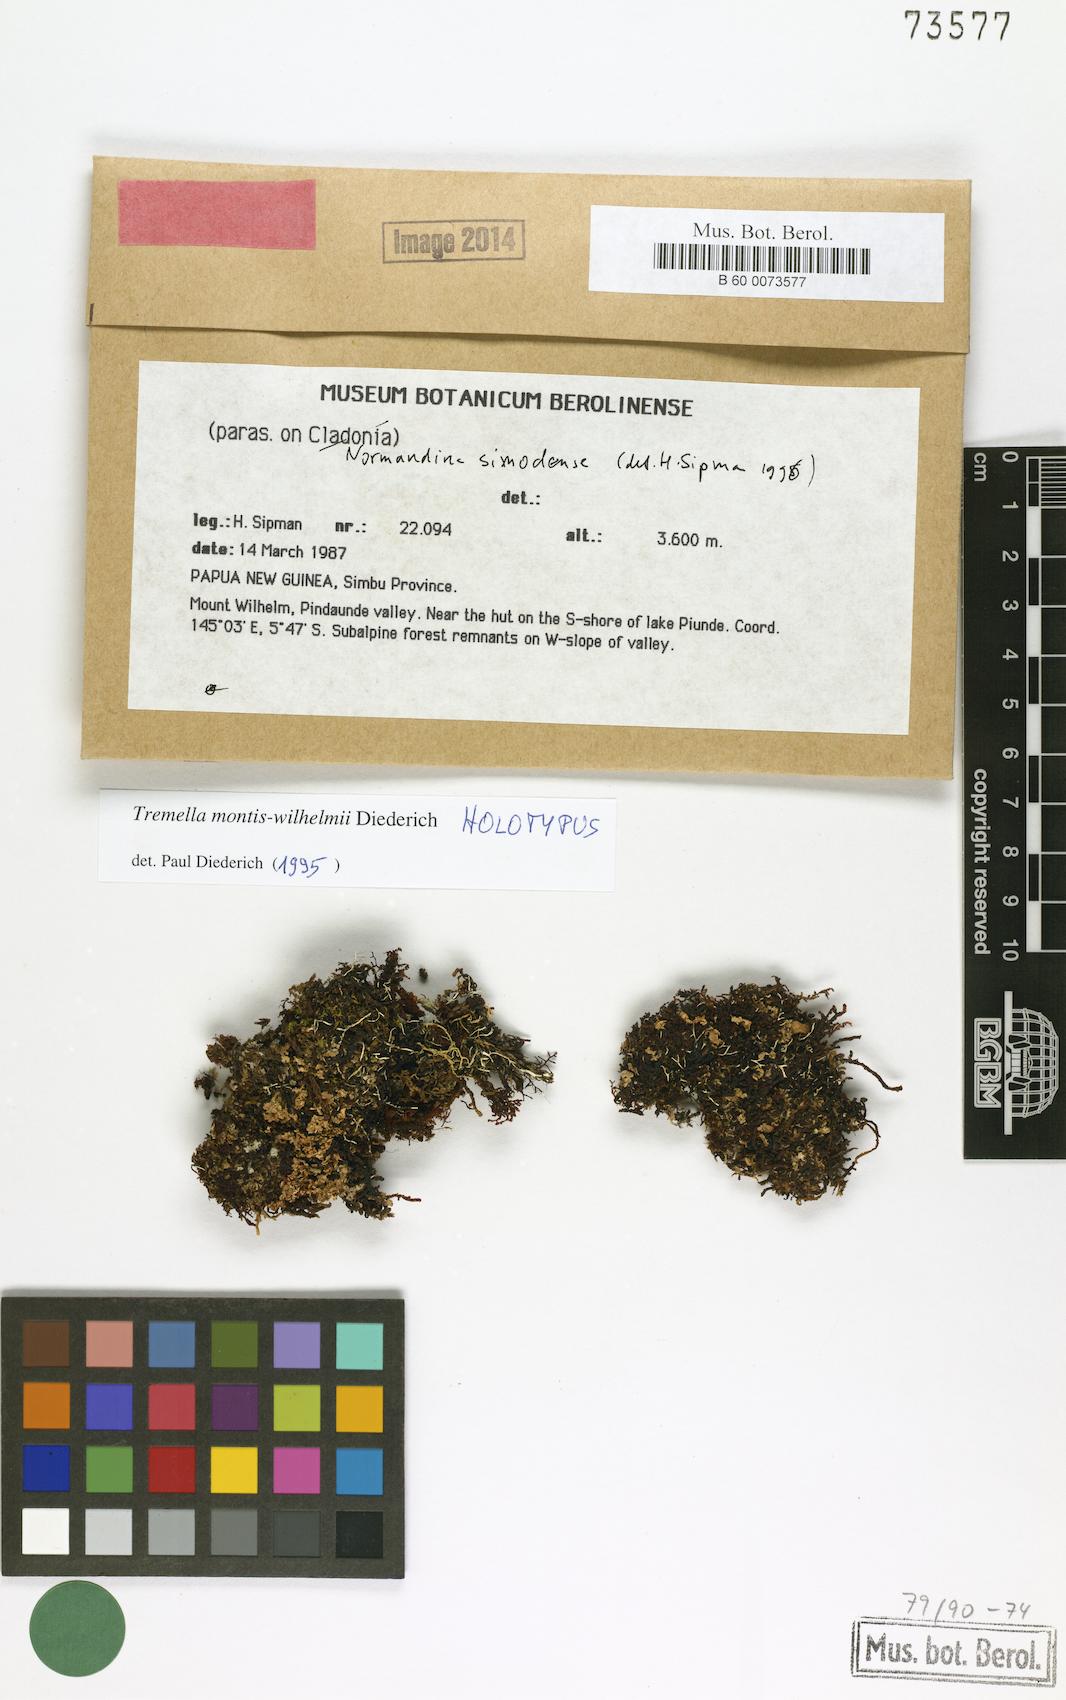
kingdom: Fungi
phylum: Basidiomycota
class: Tremellomycetes
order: Tremellales
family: Tremellaceae
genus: Tremella
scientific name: Tremella montis-wilhelmii
